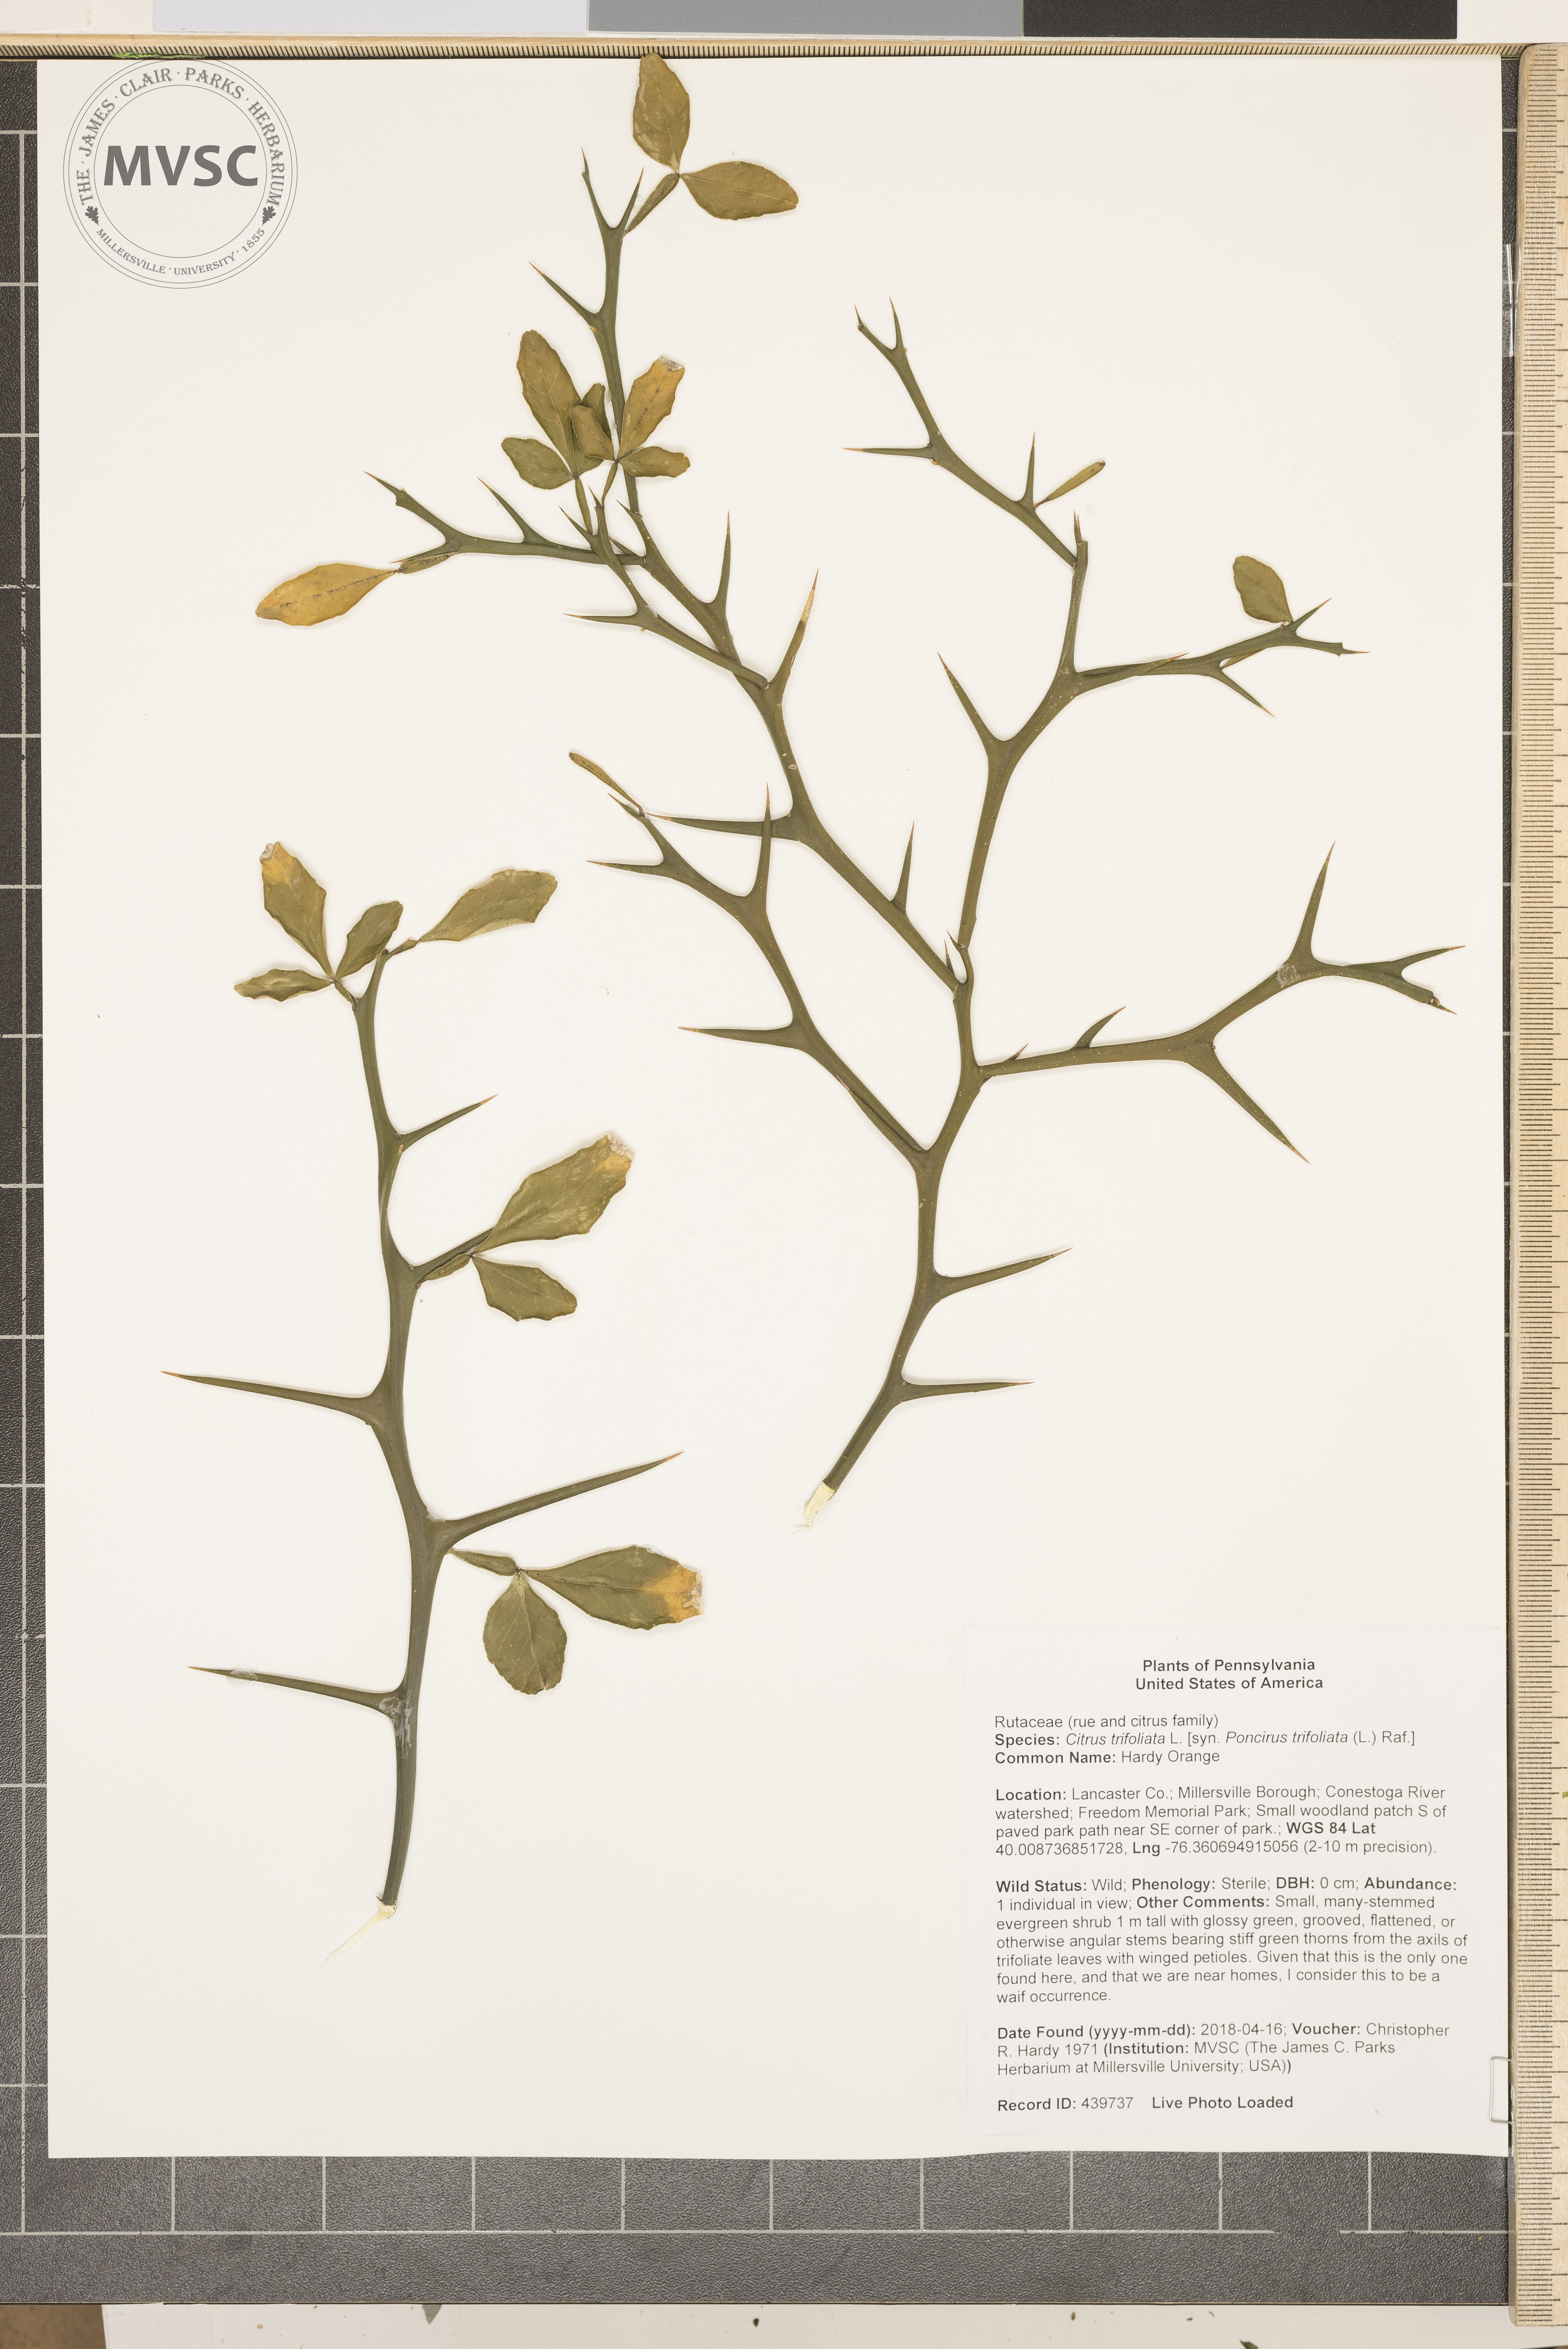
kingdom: Plantae
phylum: Tracheophyta
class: Magnoliopsida
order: Sapindales
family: Rutaceae
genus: Citrus
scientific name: Citrus trifoliata
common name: Hardy Orange
